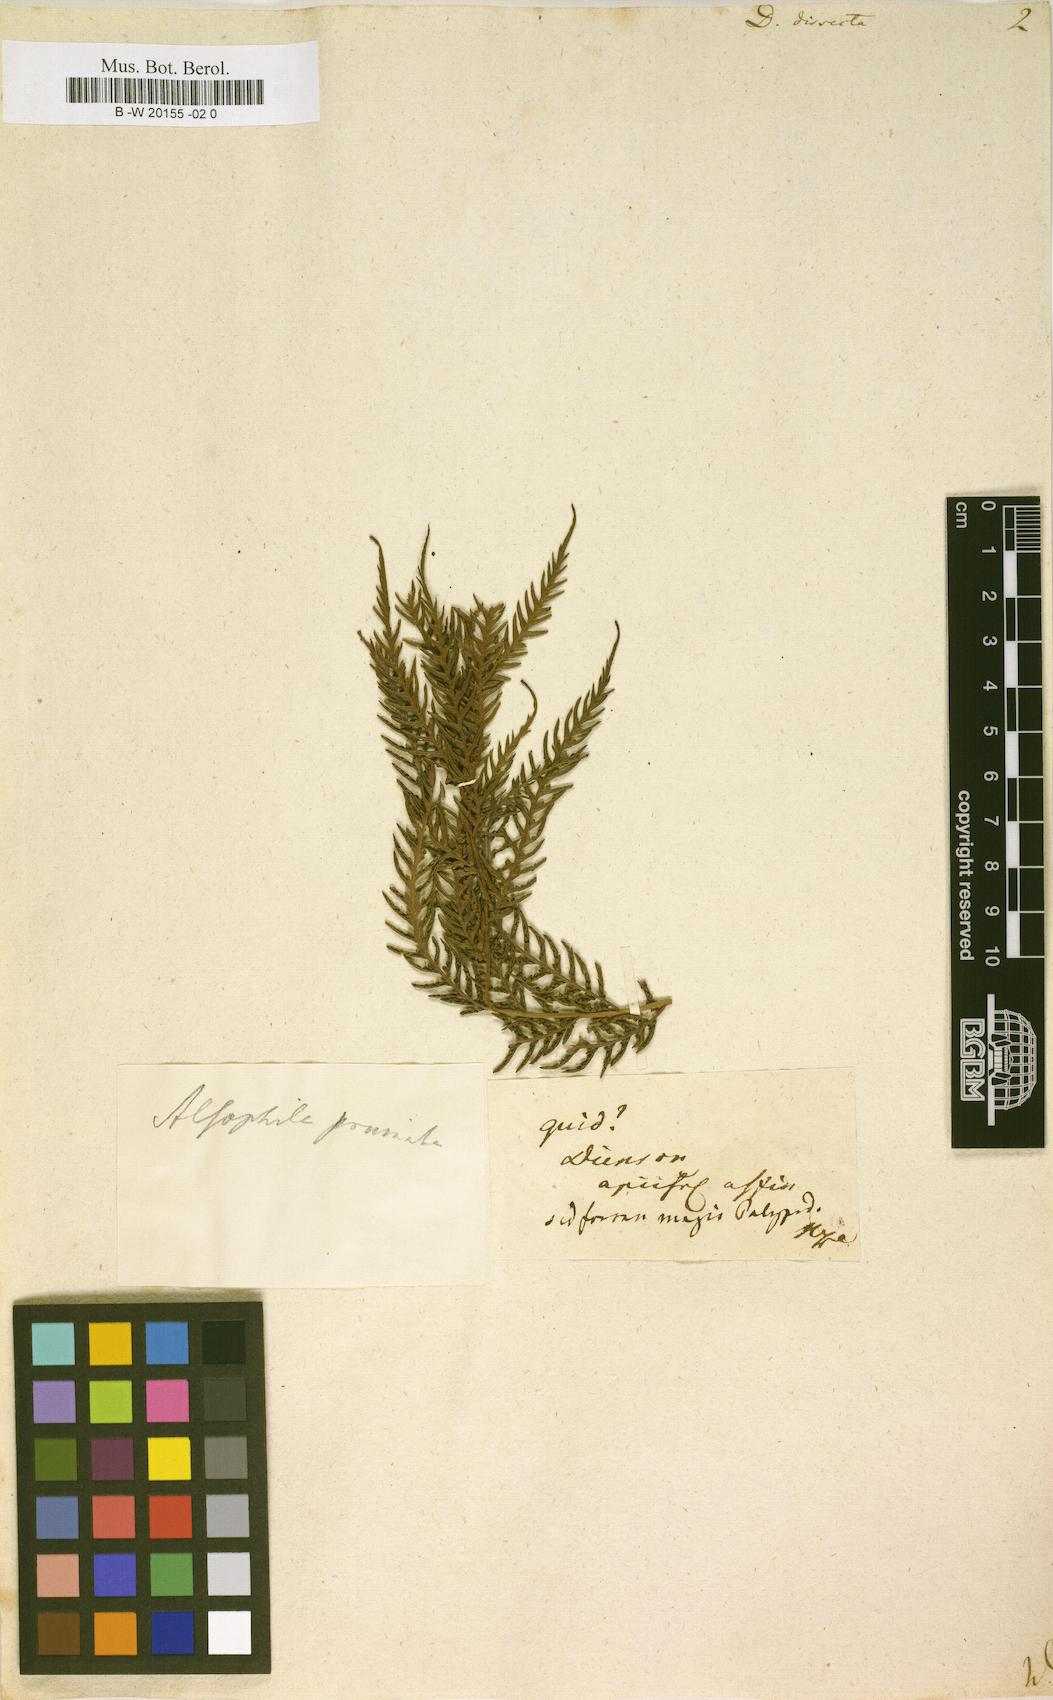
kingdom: Plantae
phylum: Tracheophyta
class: Polypodiopsida
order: Polypodiales
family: Dennstaedtiaceae
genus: Dennstaedtia
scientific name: Dennstaedtia dissecta
